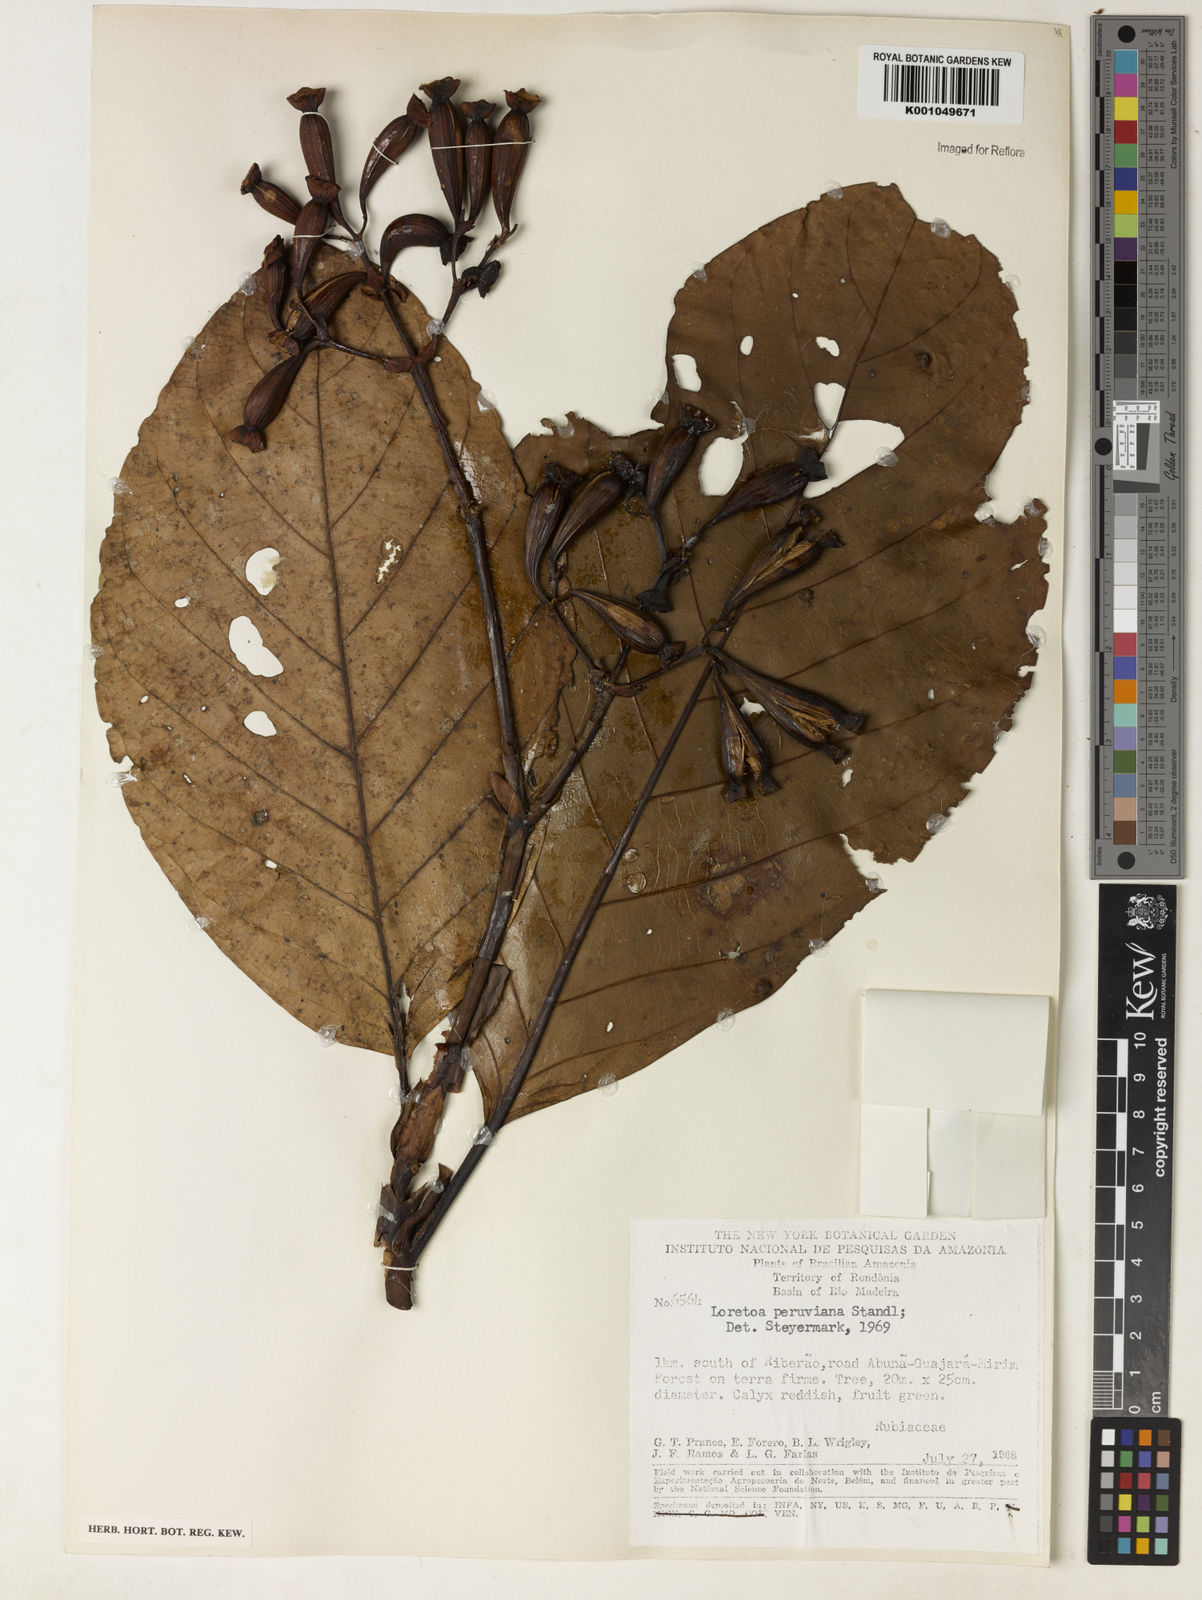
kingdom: Plantae
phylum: Tracheophyta
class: Magnoliopsida
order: Gentianales
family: Rubiaceae
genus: Capirona
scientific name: Capirona macrophylla
